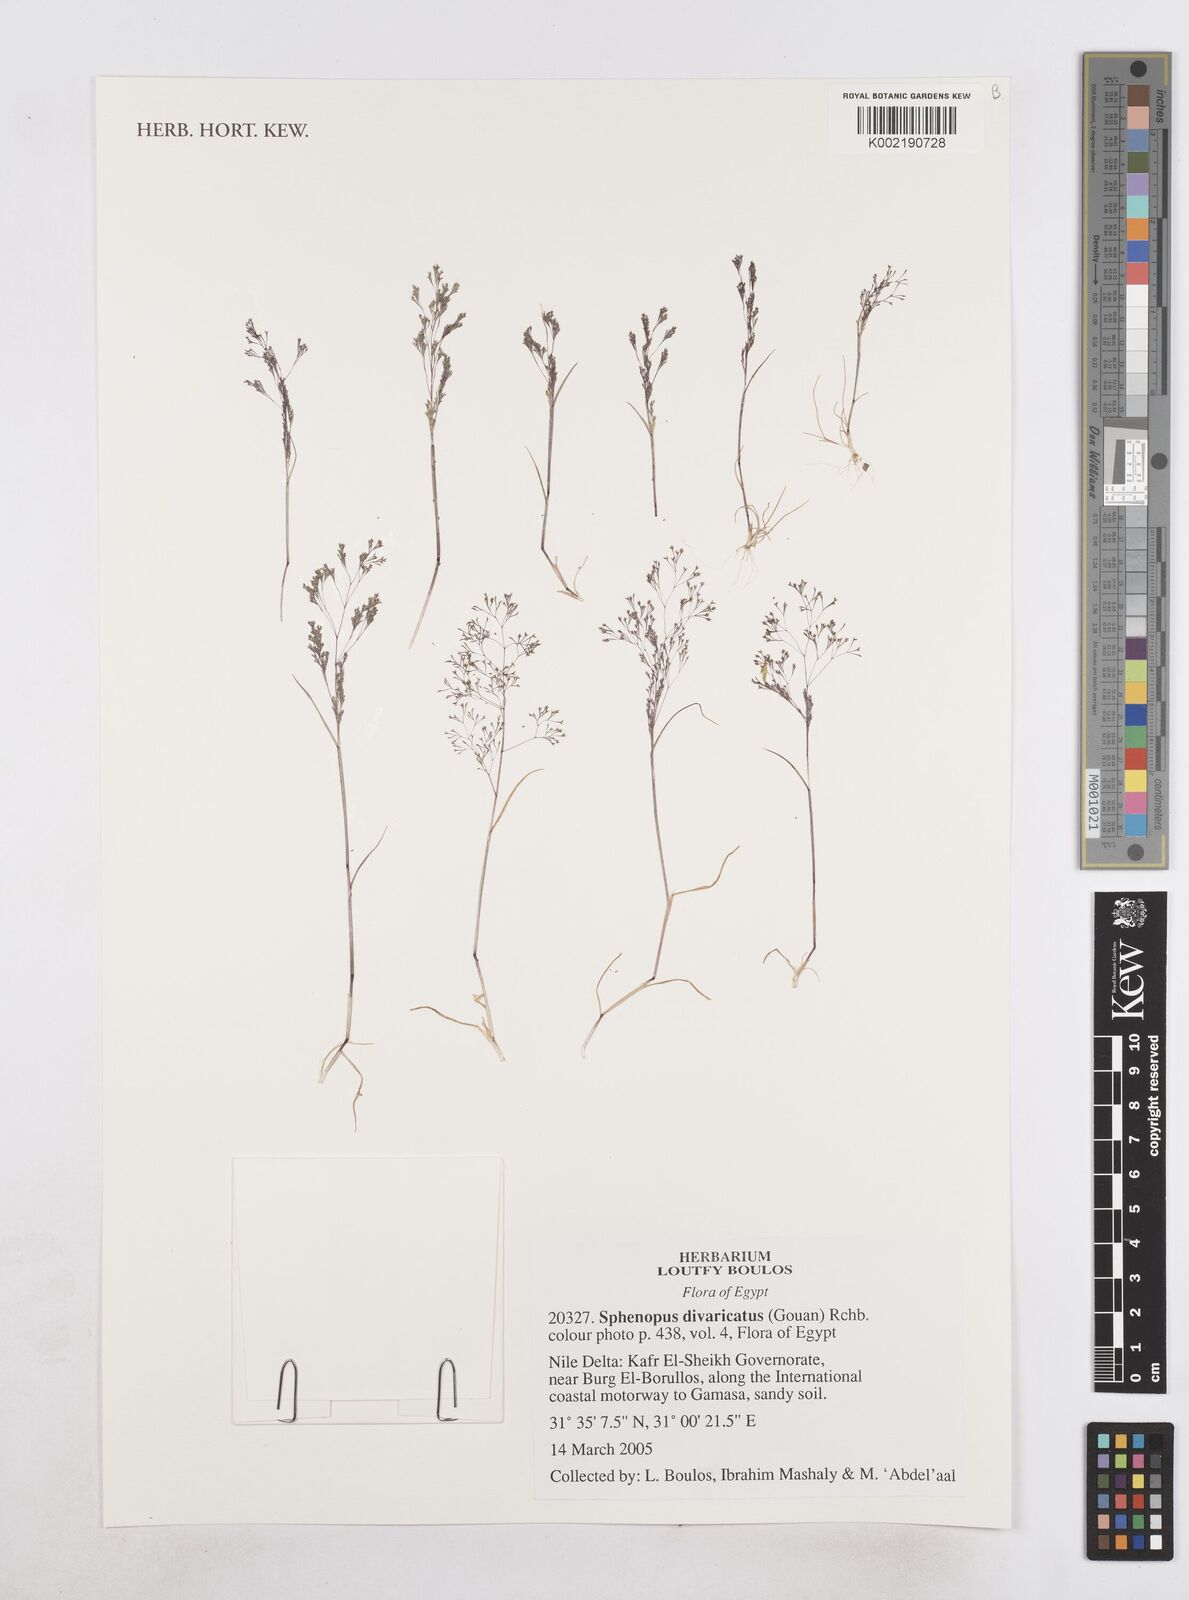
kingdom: Plantae
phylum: Tracheophyta
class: Liliopsida
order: Poales
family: Poaceae
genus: Sphenopus
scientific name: Sphenopus divaricatus
